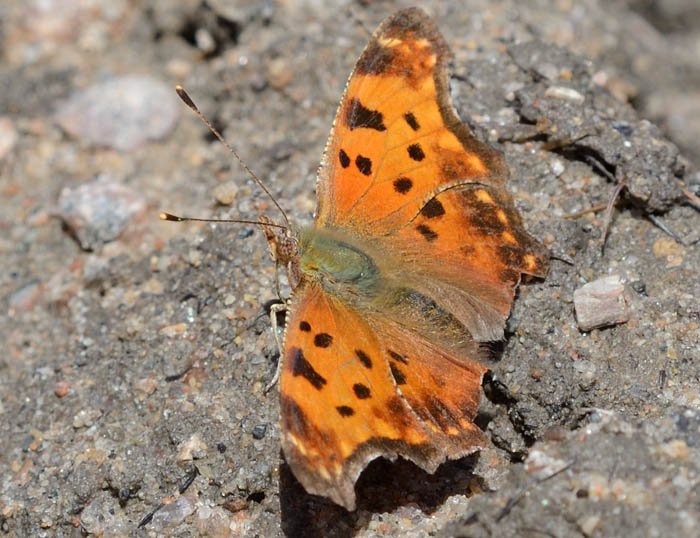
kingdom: Animalia
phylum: Arthropoda
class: Insecta
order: Lepidoptera
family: Nymphalidae
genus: Polygonia
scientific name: Polygonia comma
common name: Eastern Comma
